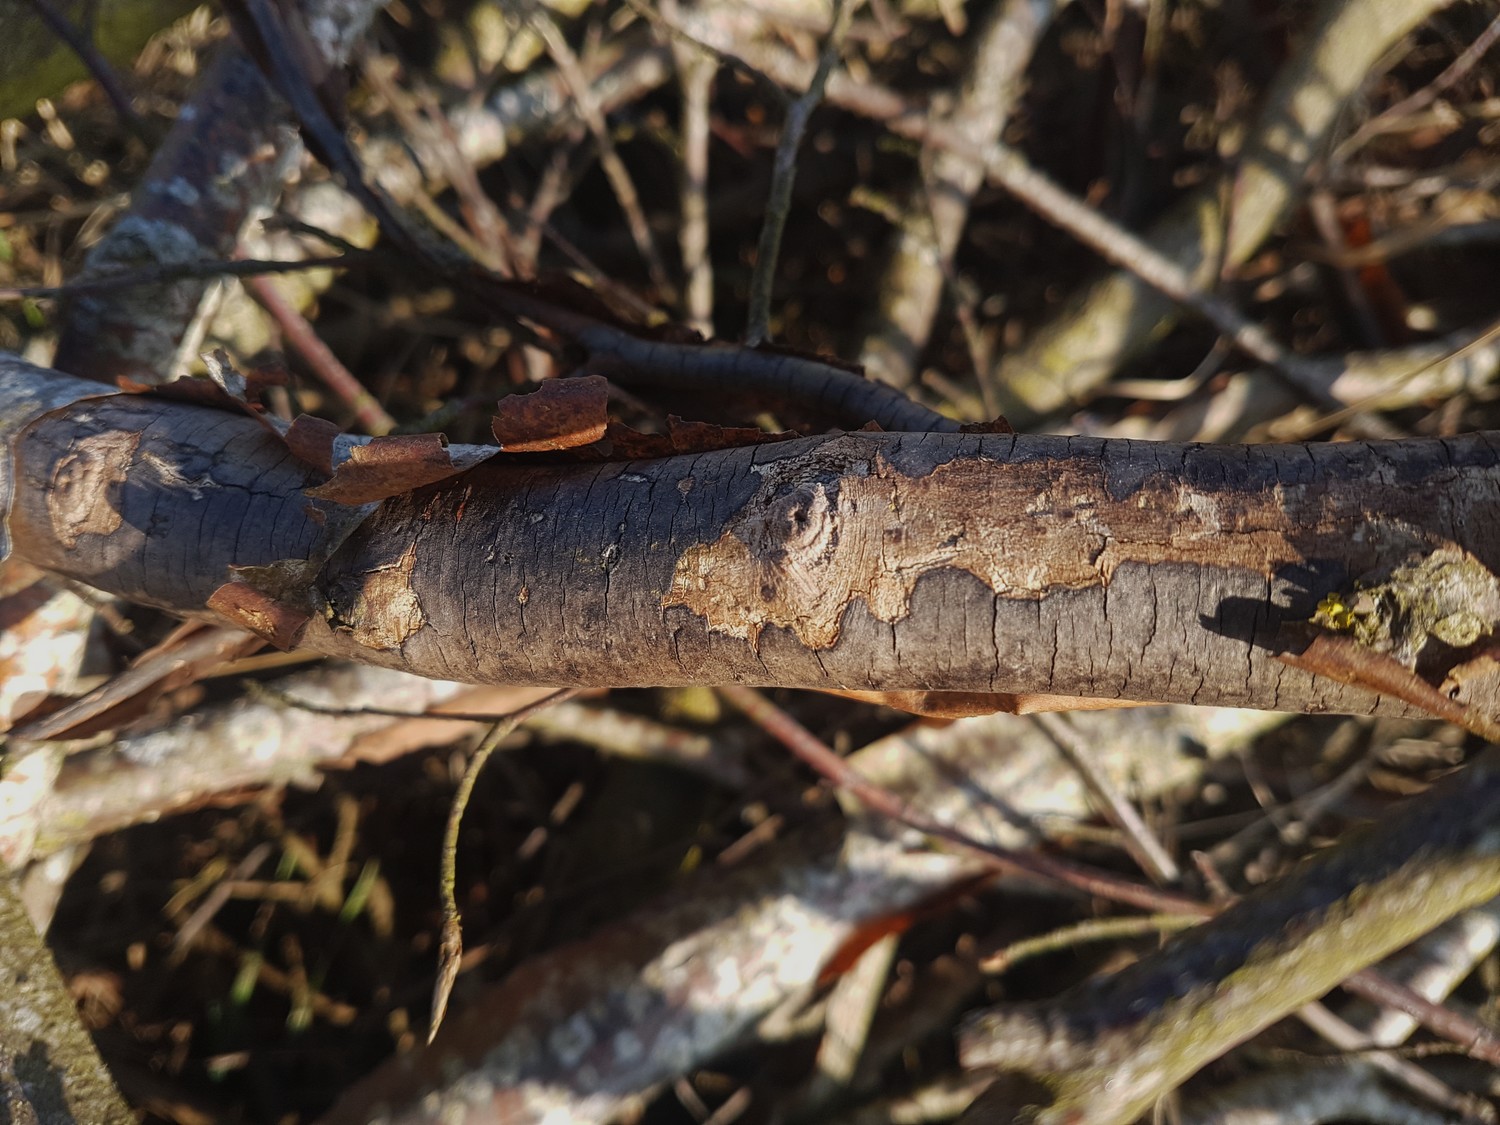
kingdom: Fungi
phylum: Ascomycota
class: Sordariomycetes
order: Xylariales
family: Diatrypaceae
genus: Diatrype
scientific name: Diatrype decorticata
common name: barksprænger-kulskorpe
